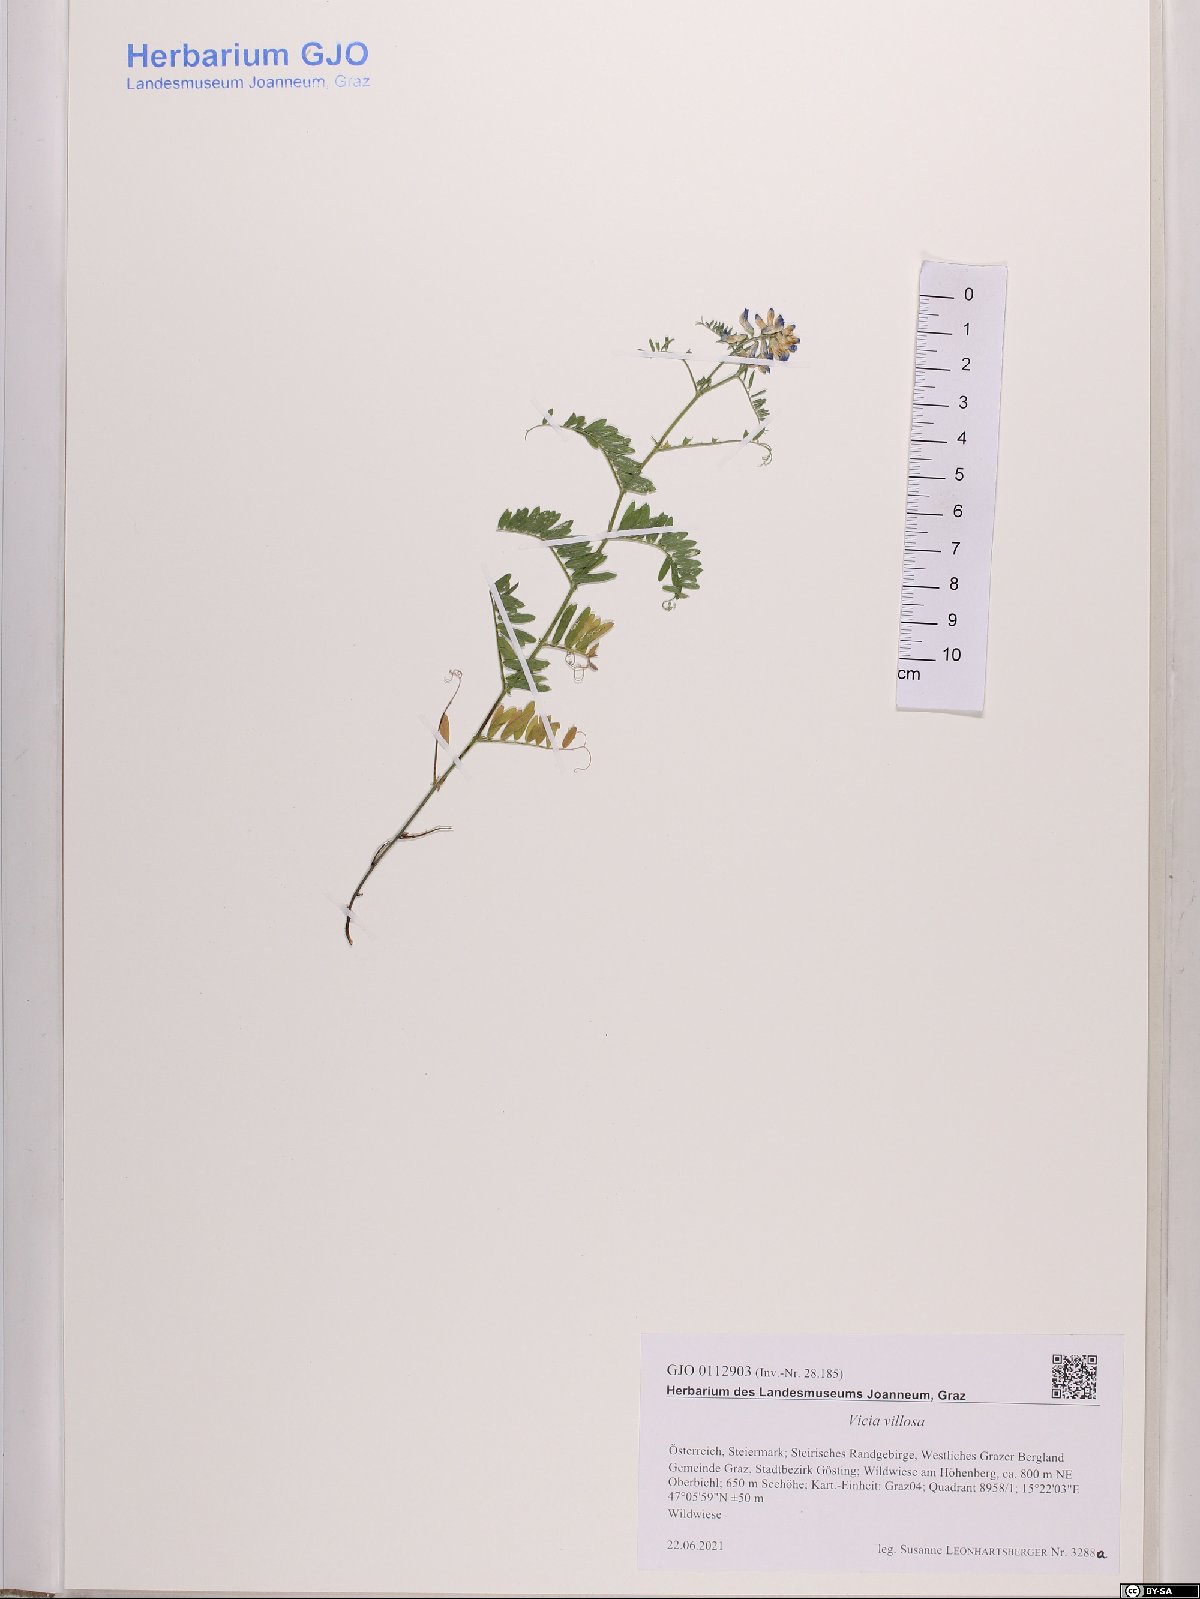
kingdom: Plantae
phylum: Tracheophyta
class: Magnoliopsida
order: Fabales
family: Fabaceae
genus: Vicia
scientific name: Vicia villosa
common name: Fodder vetch
